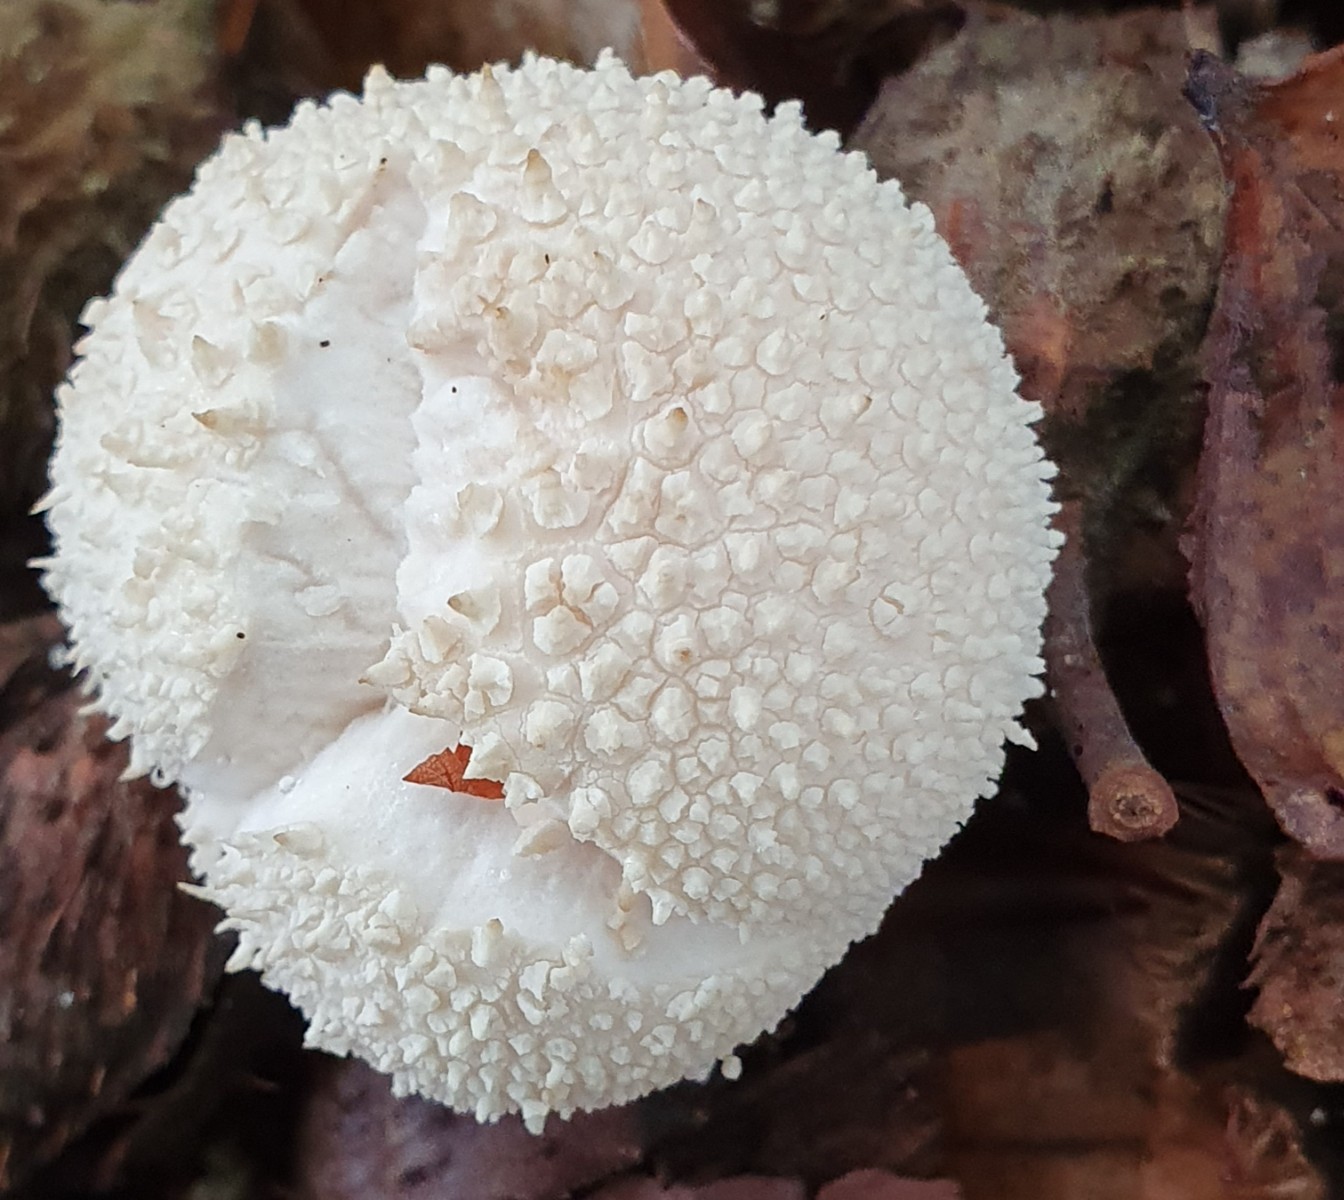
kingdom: Fungi
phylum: Basidiomycota
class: Agaricomycetes
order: Agaricales
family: Lycoperdaceae
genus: Lycoperdon
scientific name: Lycoperdon perlatum
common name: krystal-støvbold
